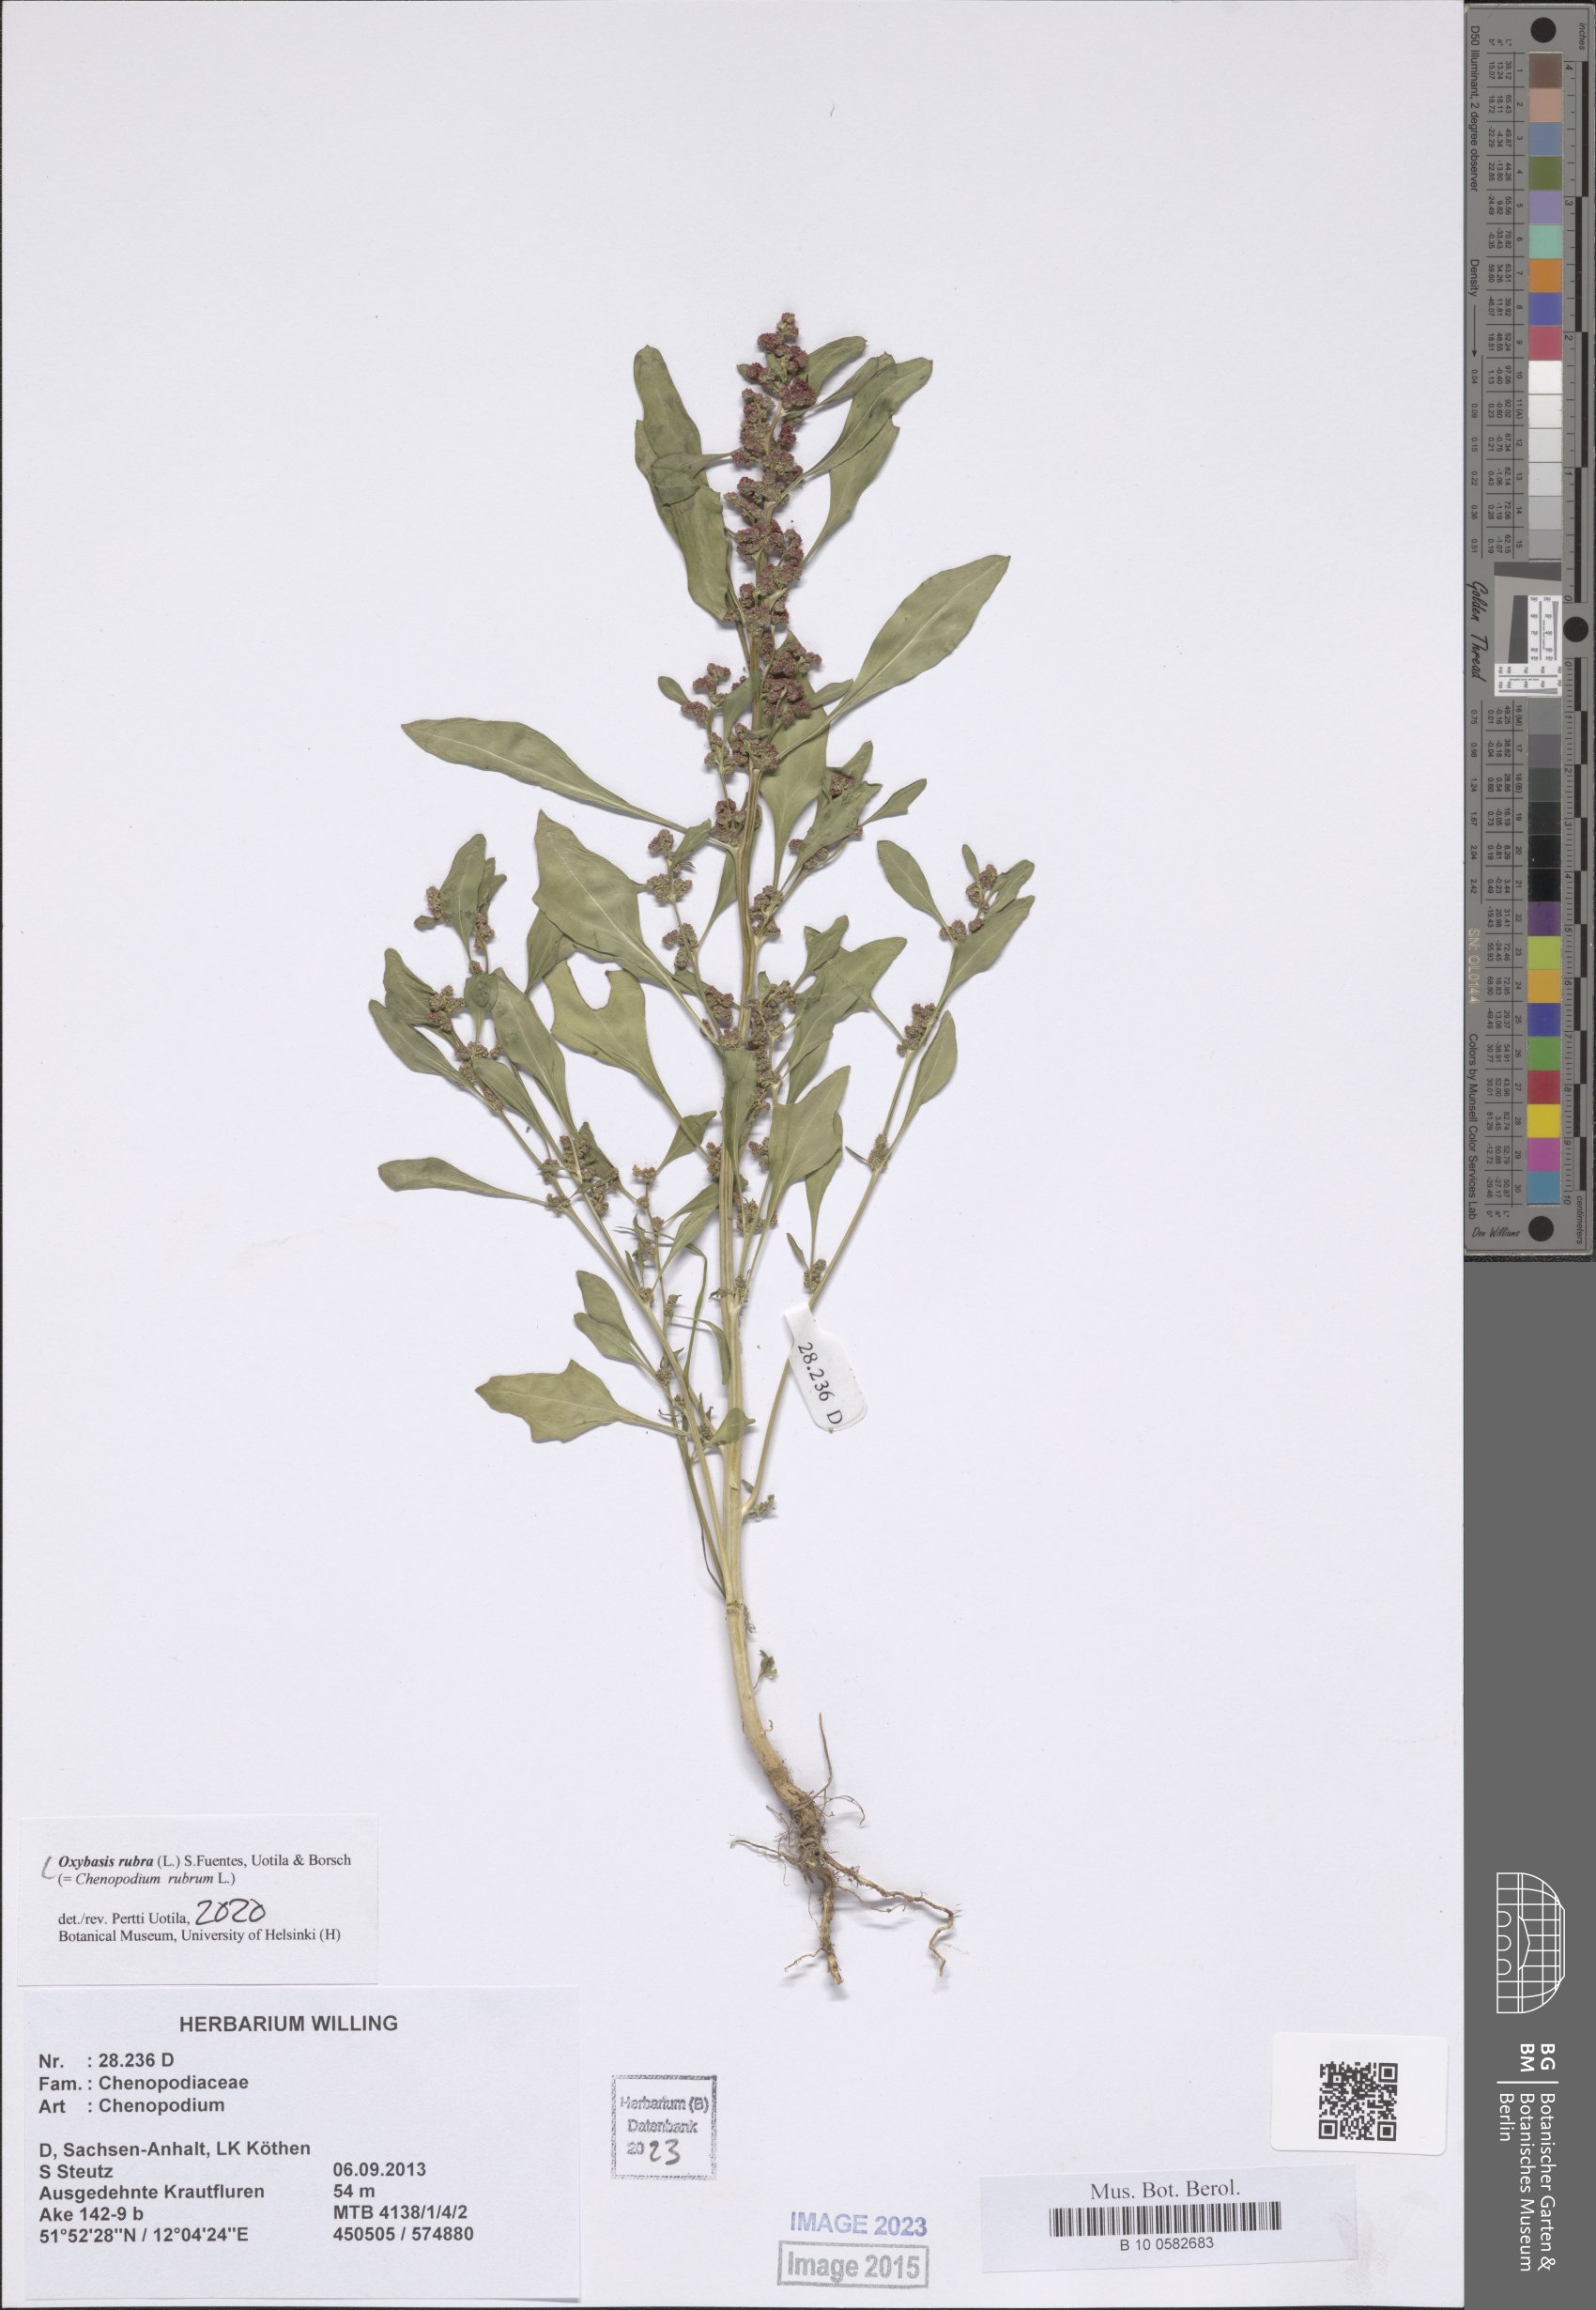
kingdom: Plantae
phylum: Tracheophyta
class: Magnoliopsida
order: Caryophyllales
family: Amaranthaceae
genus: Oxybasis
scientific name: Oxybasis rubra
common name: Red goosefoot
